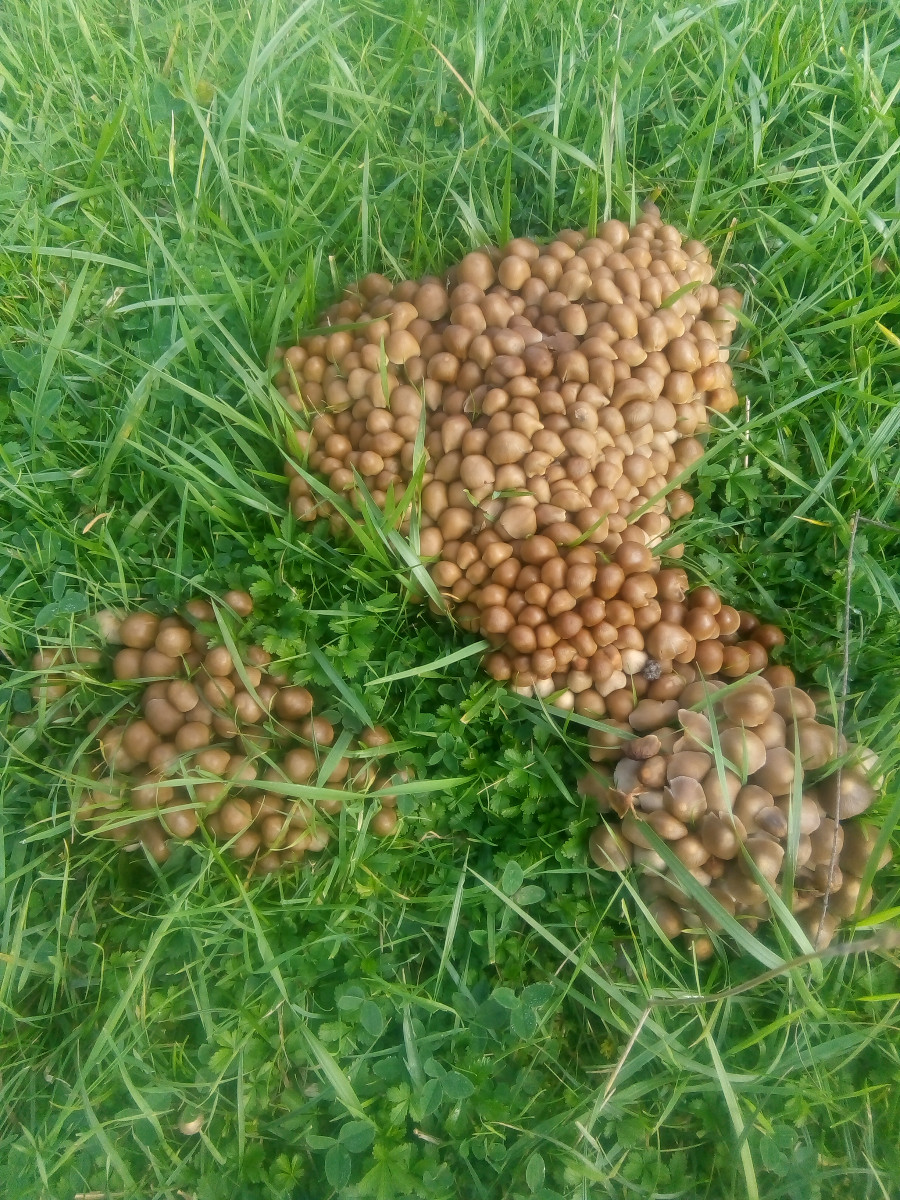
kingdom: Fungi
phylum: Basidiomycota
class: Agaricomycetes
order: Agaricales
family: Psathyrellaceae
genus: Britzelmayria
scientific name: Britzelmayria multipedata
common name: knippe-mørkhat
